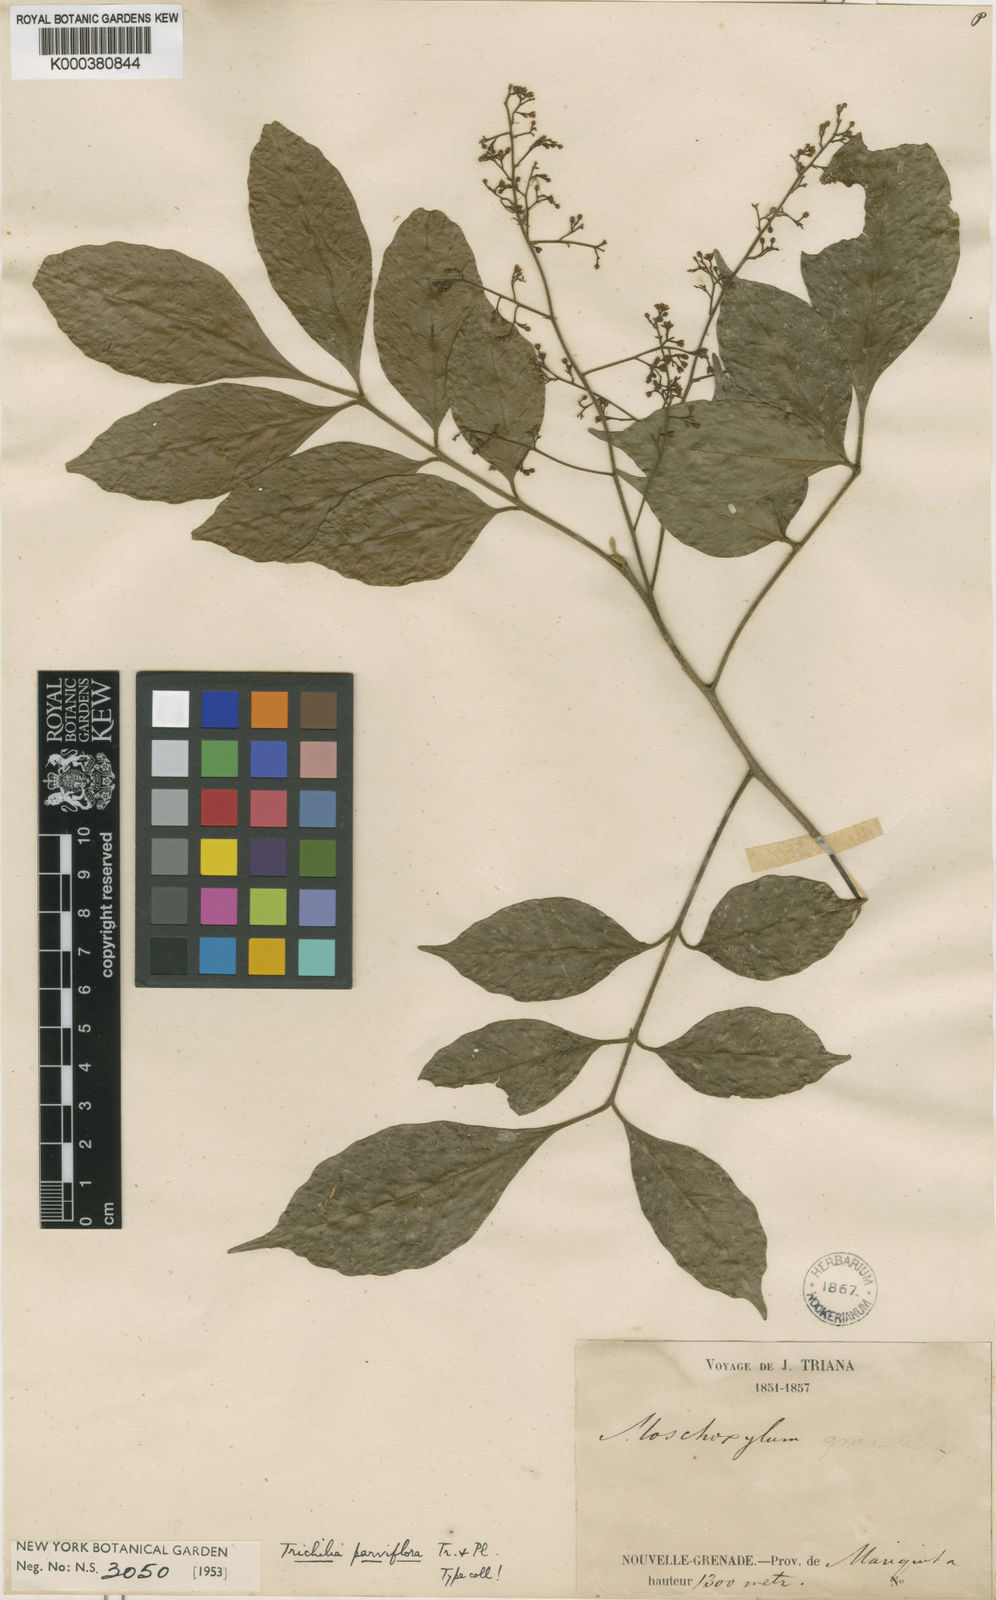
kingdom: Plantae
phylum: Tracheophyta
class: Magnoliopsida
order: Sapindales
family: Meliaceae
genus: Trichilia
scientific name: Trichilia elegans
